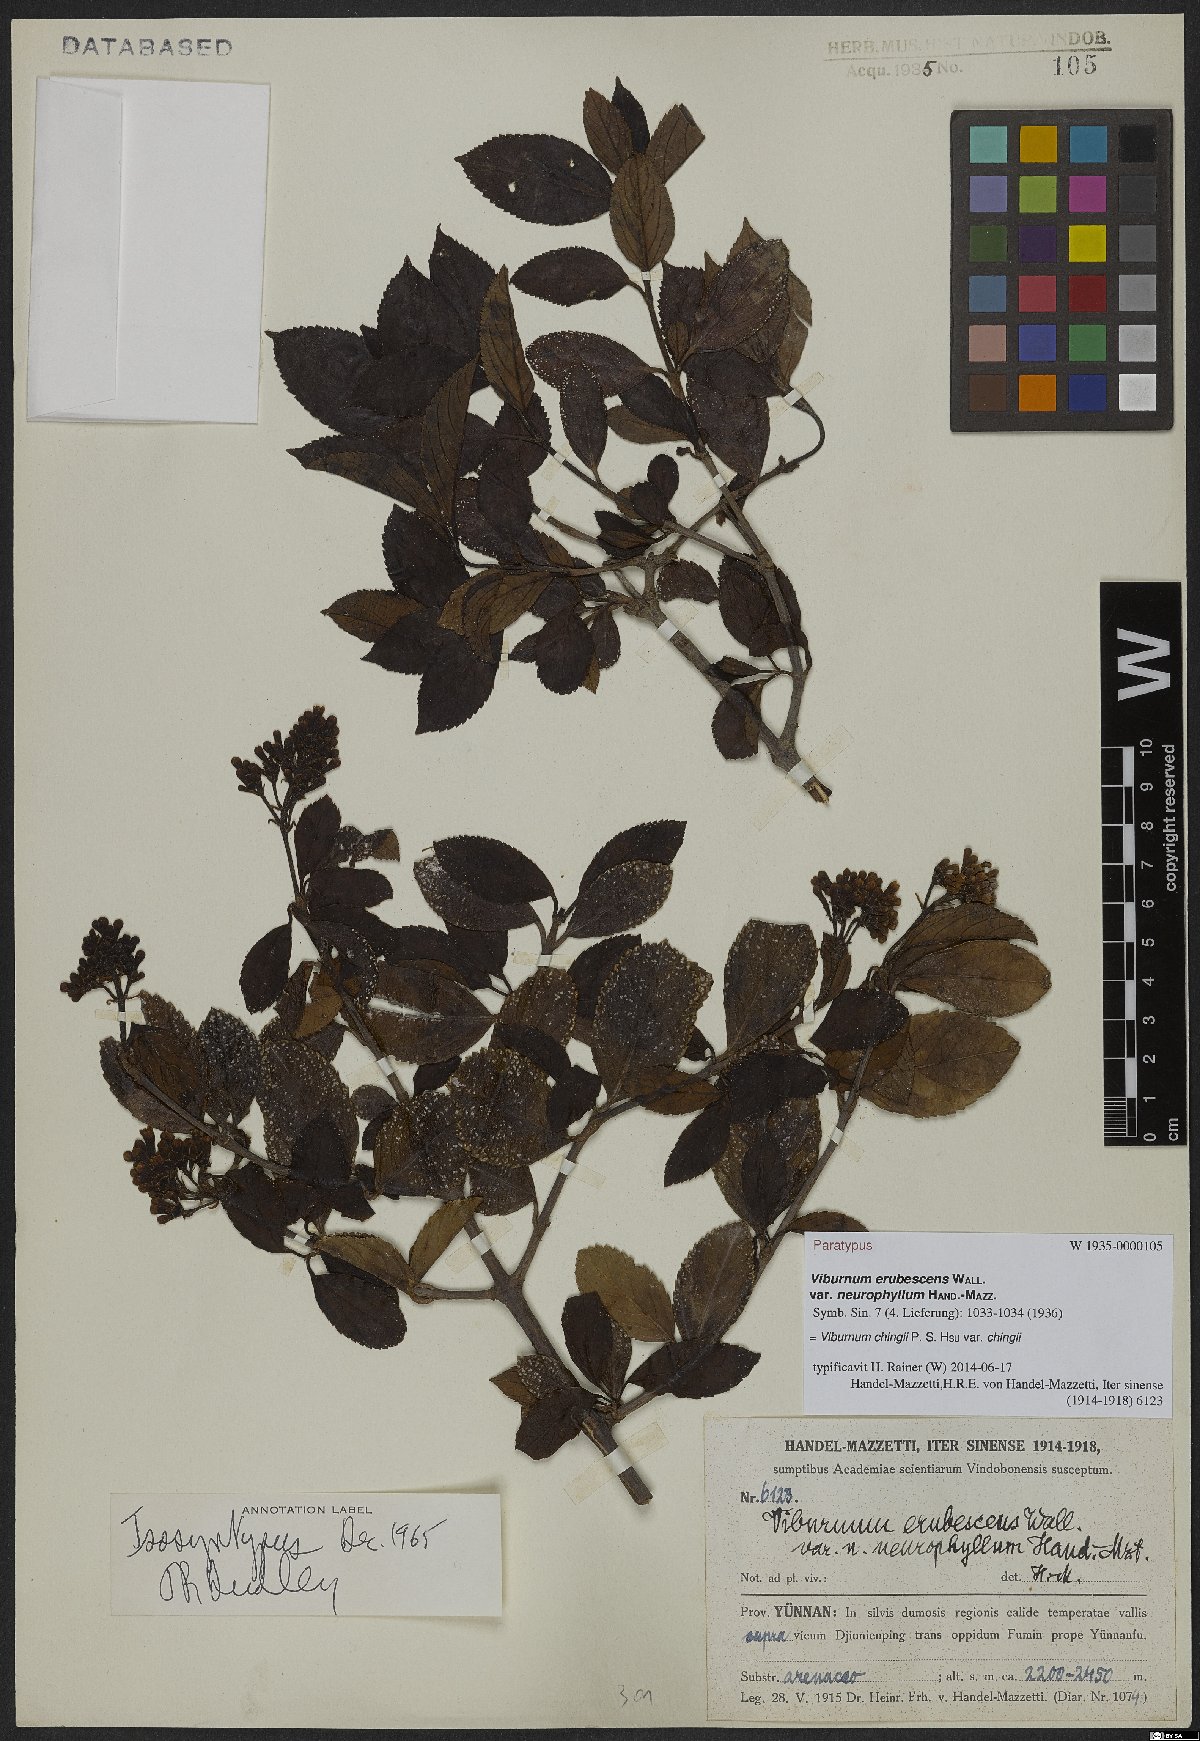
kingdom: Plantae
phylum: Tracheophyta
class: Magnoliopsida
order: Dipsacales
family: Viburnaceae
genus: Viburnum
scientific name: Viburnum chingii
